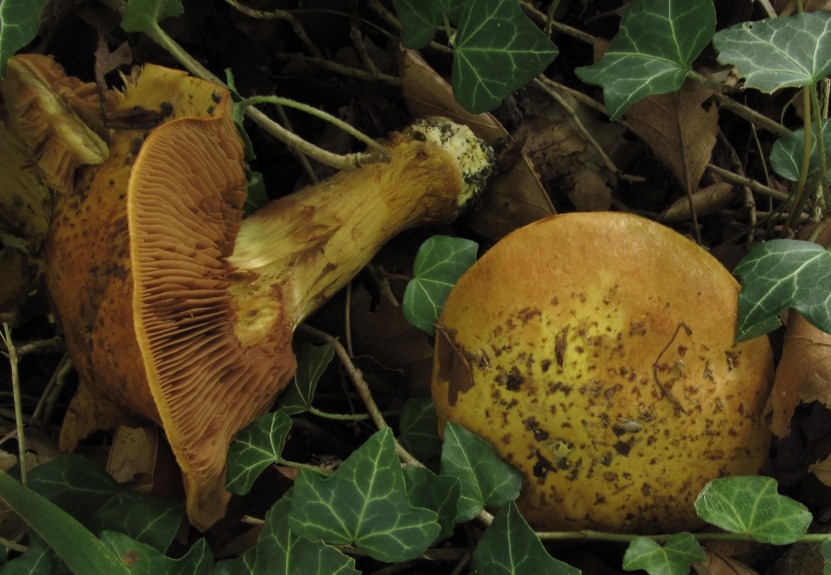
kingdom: Fungi
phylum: Basidiomycota
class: Agaricomycetes
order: Agaricales
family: Cortinariaceae
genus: Calonarius
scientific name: Calonarius alcalinophilus
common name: gyldenbrun slørhat
